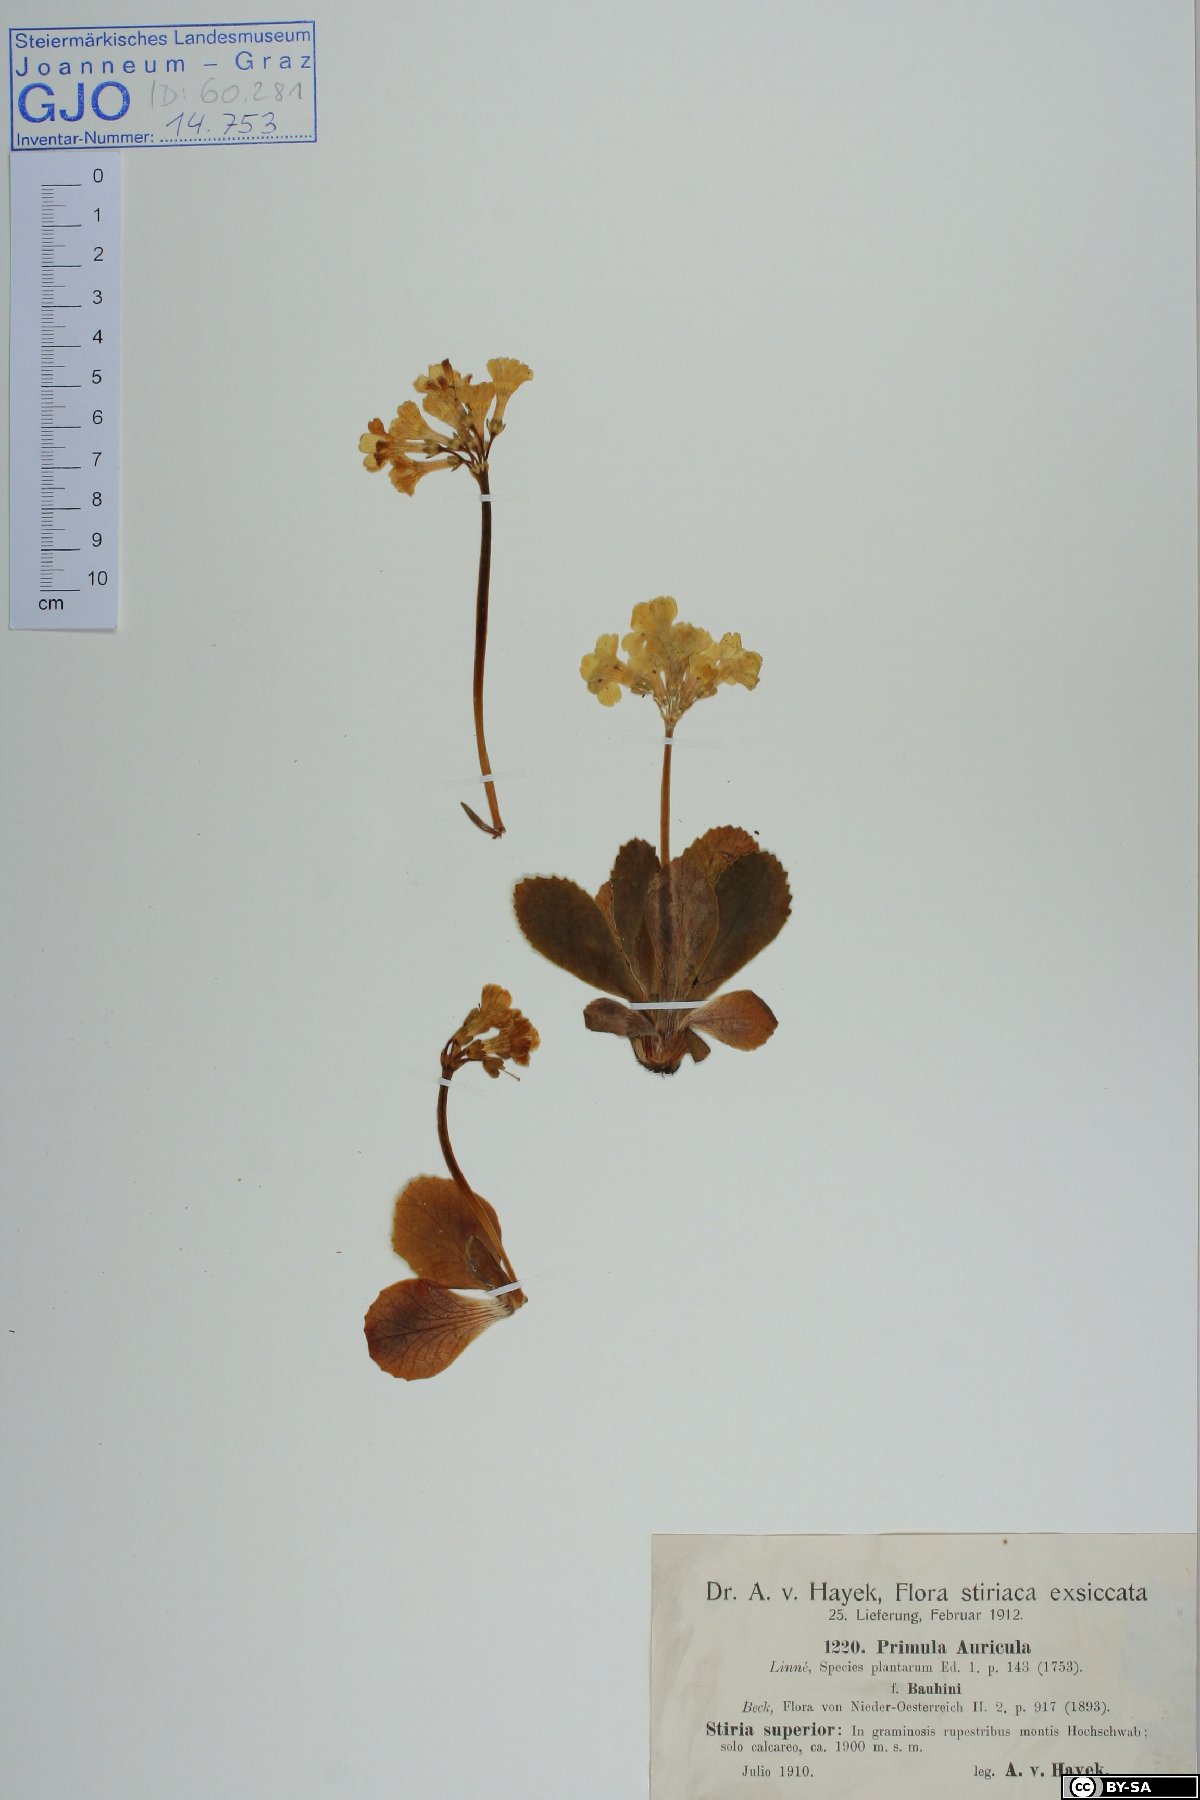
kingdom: Plantae
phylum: Tracheophyta
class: Magnoliopsida
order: Ericales
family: Primulaceae
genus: Primula
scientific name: Primula auricula
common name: Auricula
